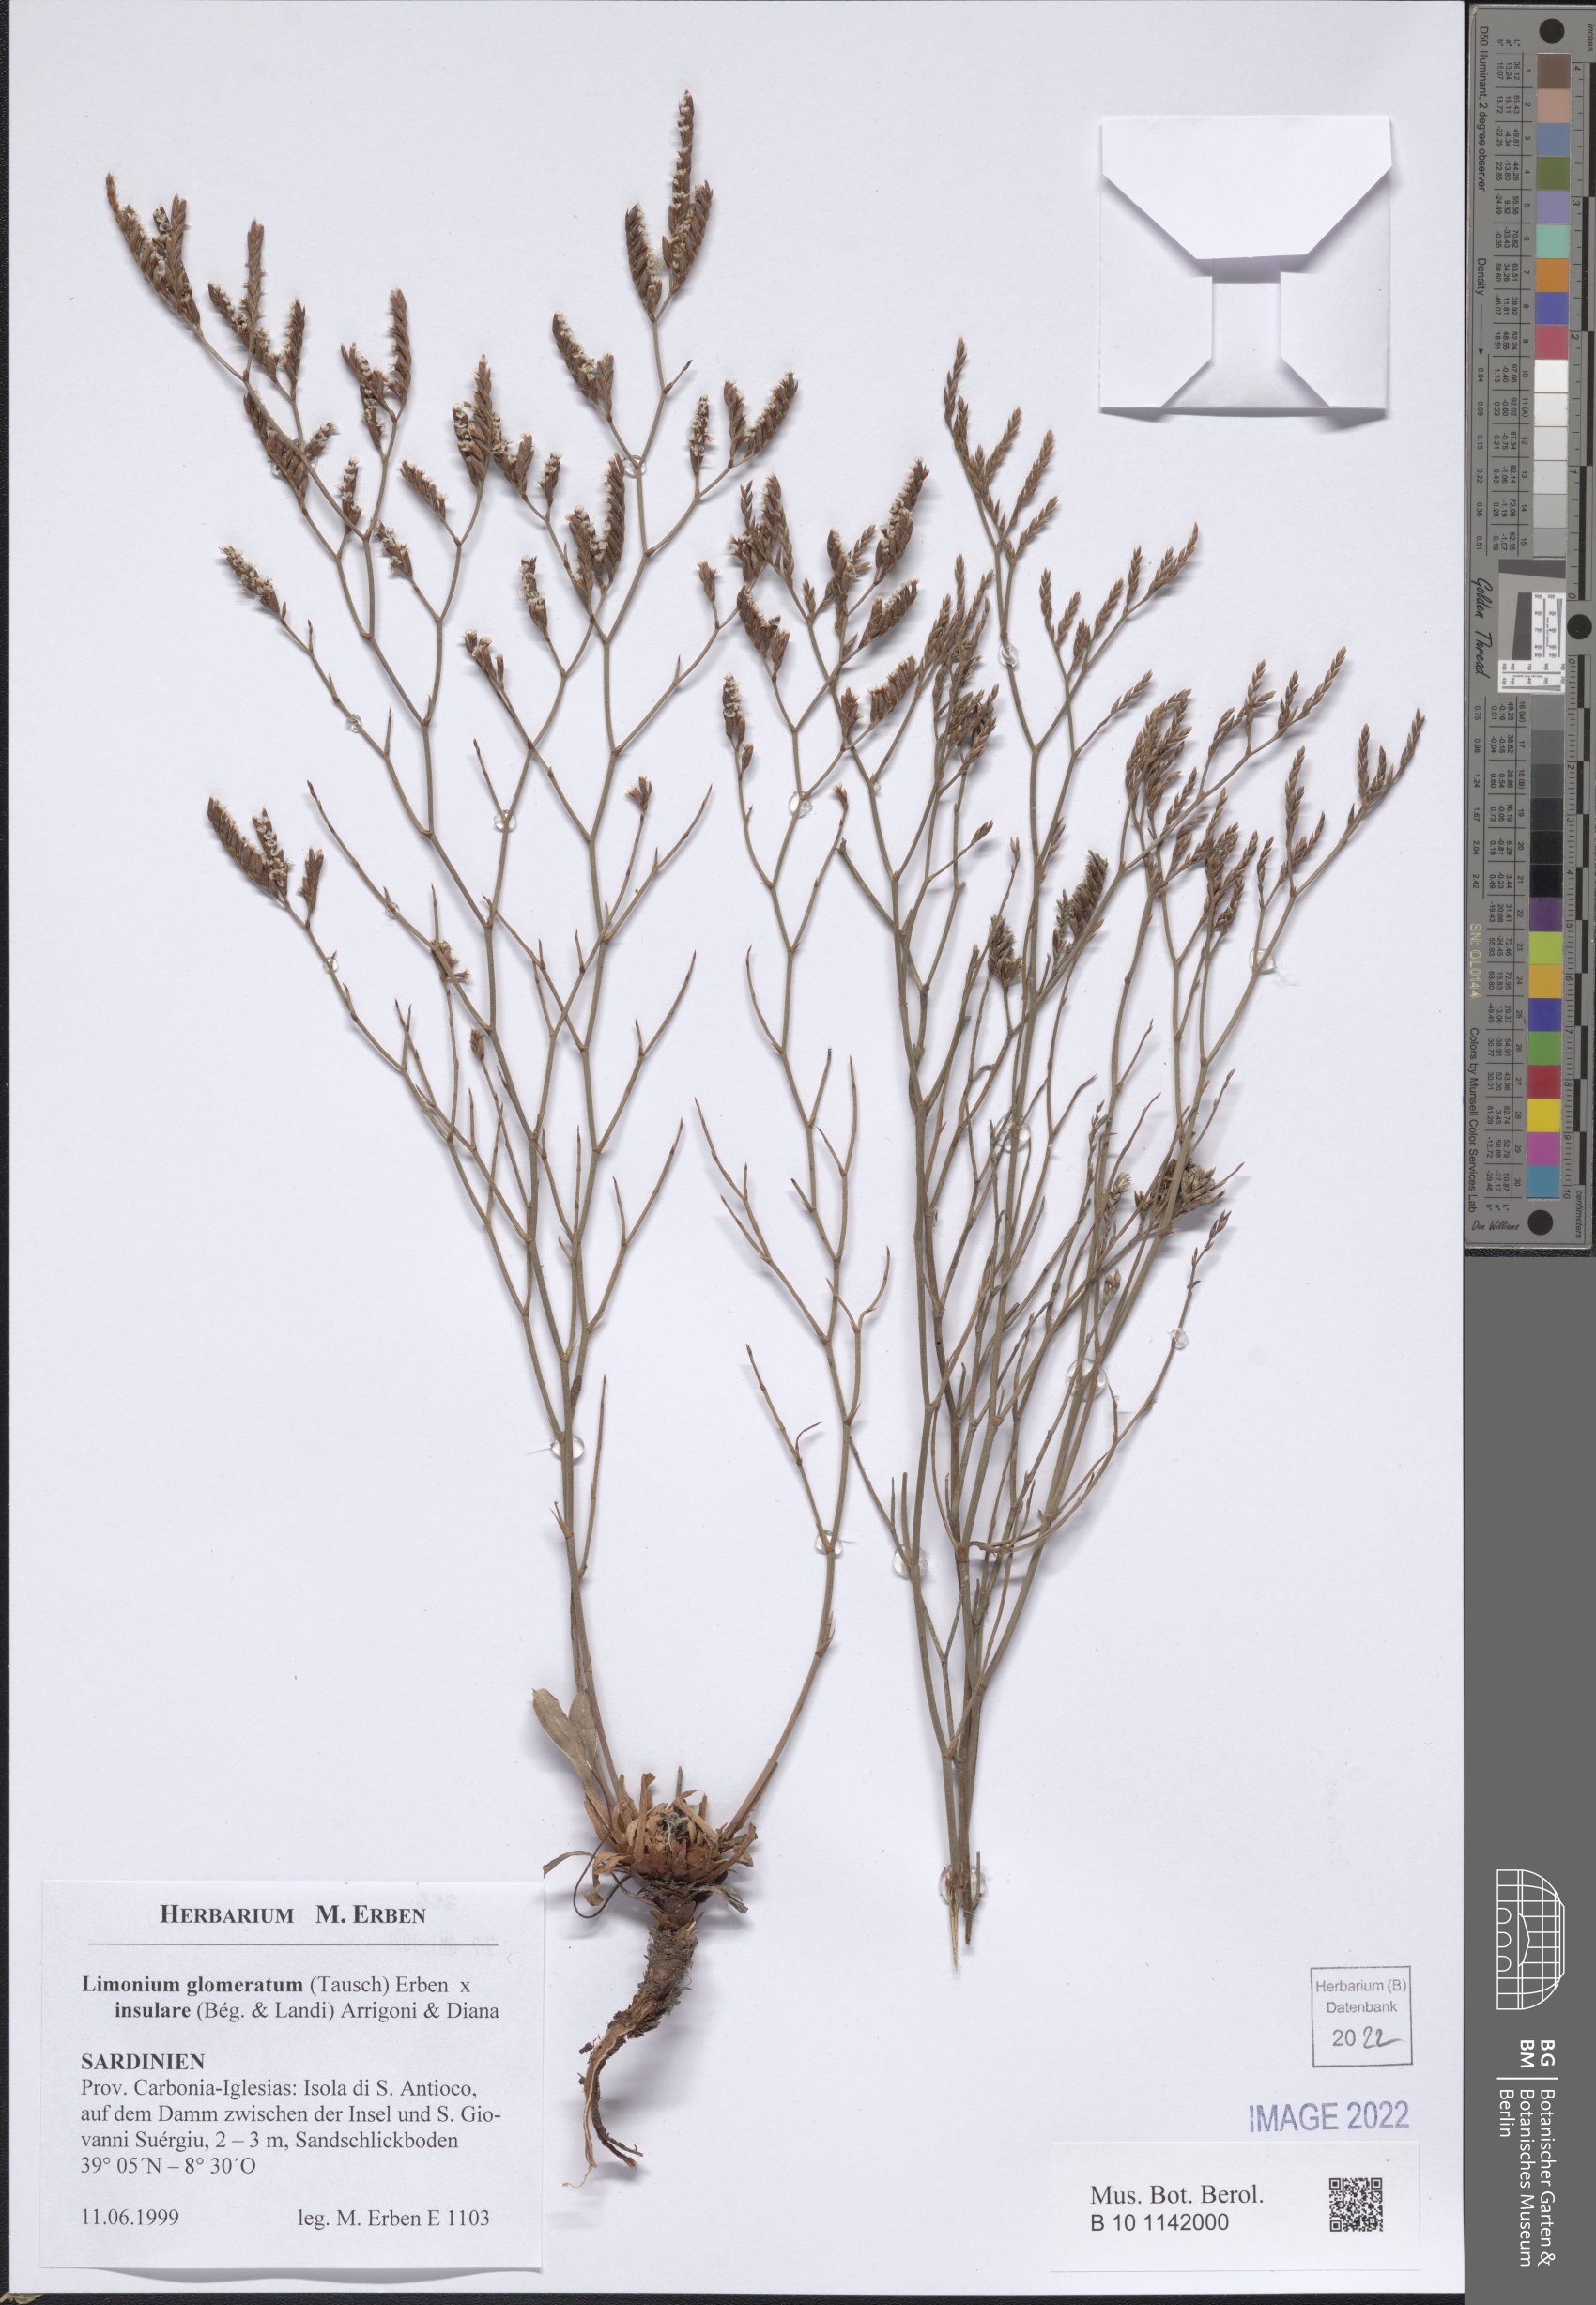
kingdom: Plantae
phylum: Tracheophyta
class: Magnoliopsida
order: Caryophyllales
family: Plumbaginaceae
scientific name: Plumbaginaceae
